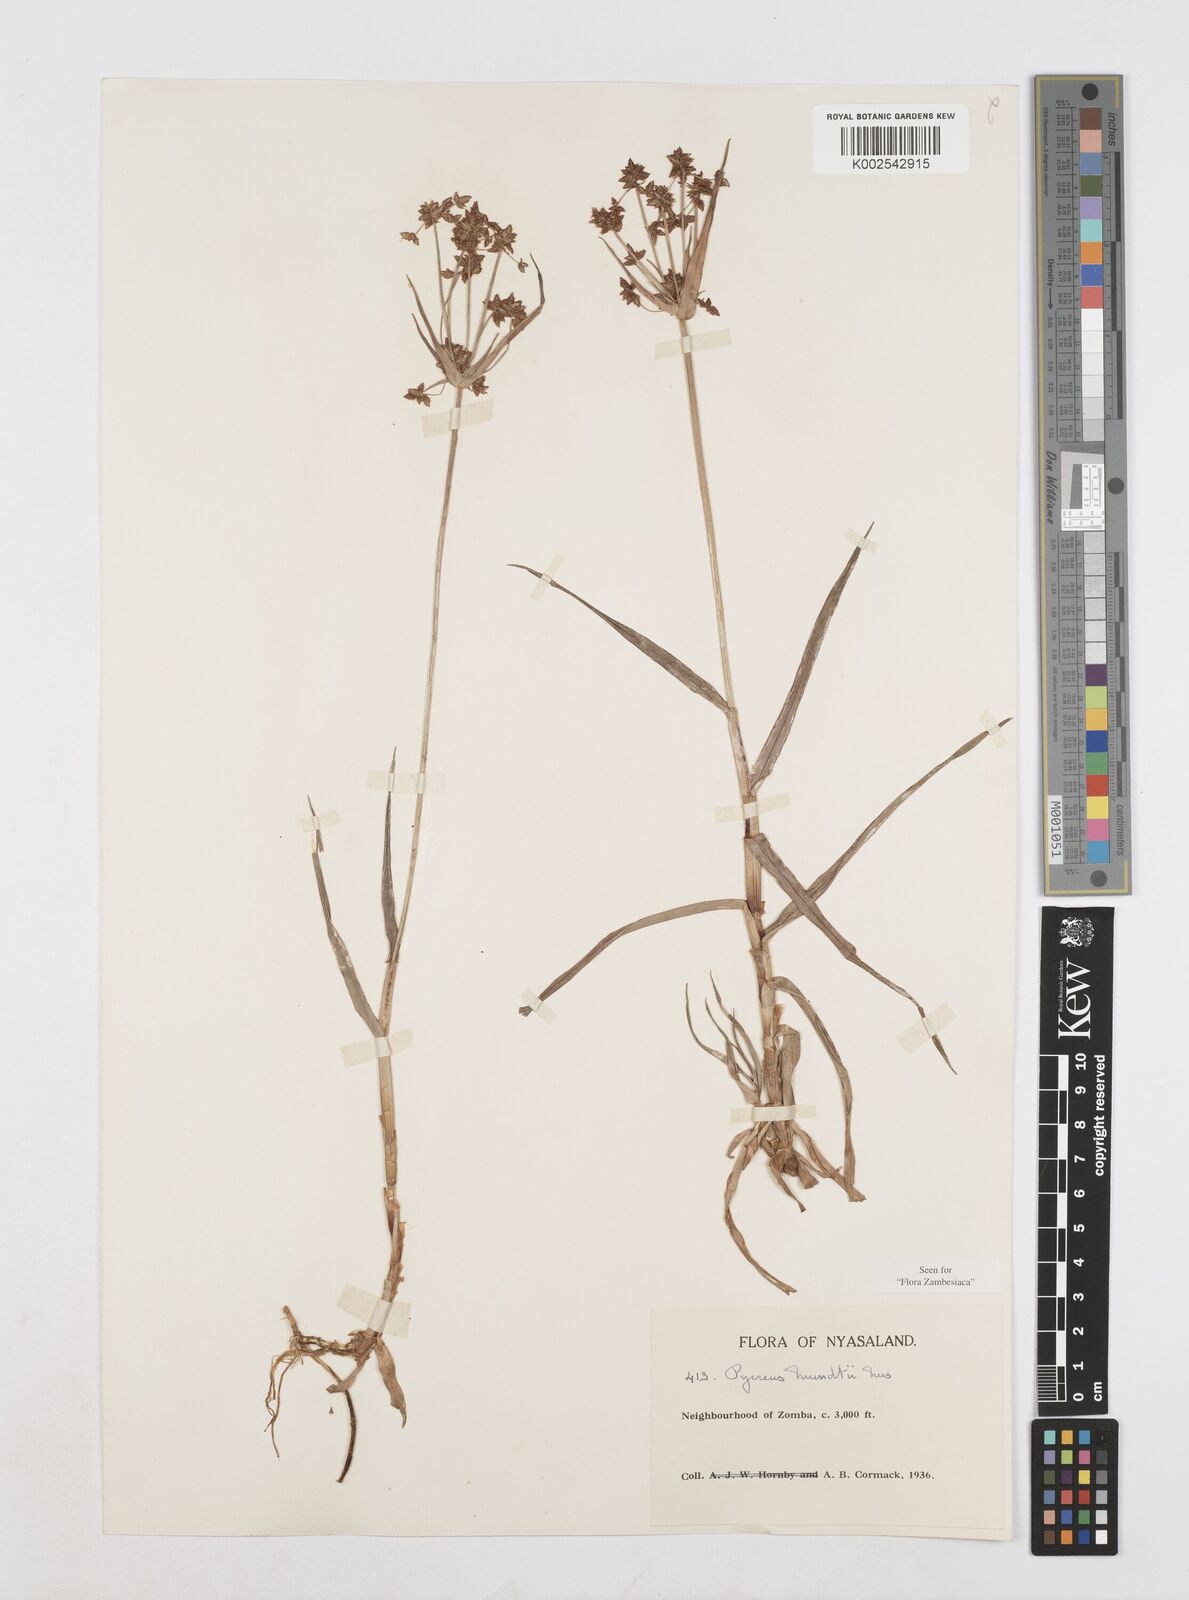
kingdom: Plantae
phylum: Tracheophyta
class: Liliopsida
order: Poales
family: Cyperaceae
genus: Cyperus
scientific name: Cyperus mundii
